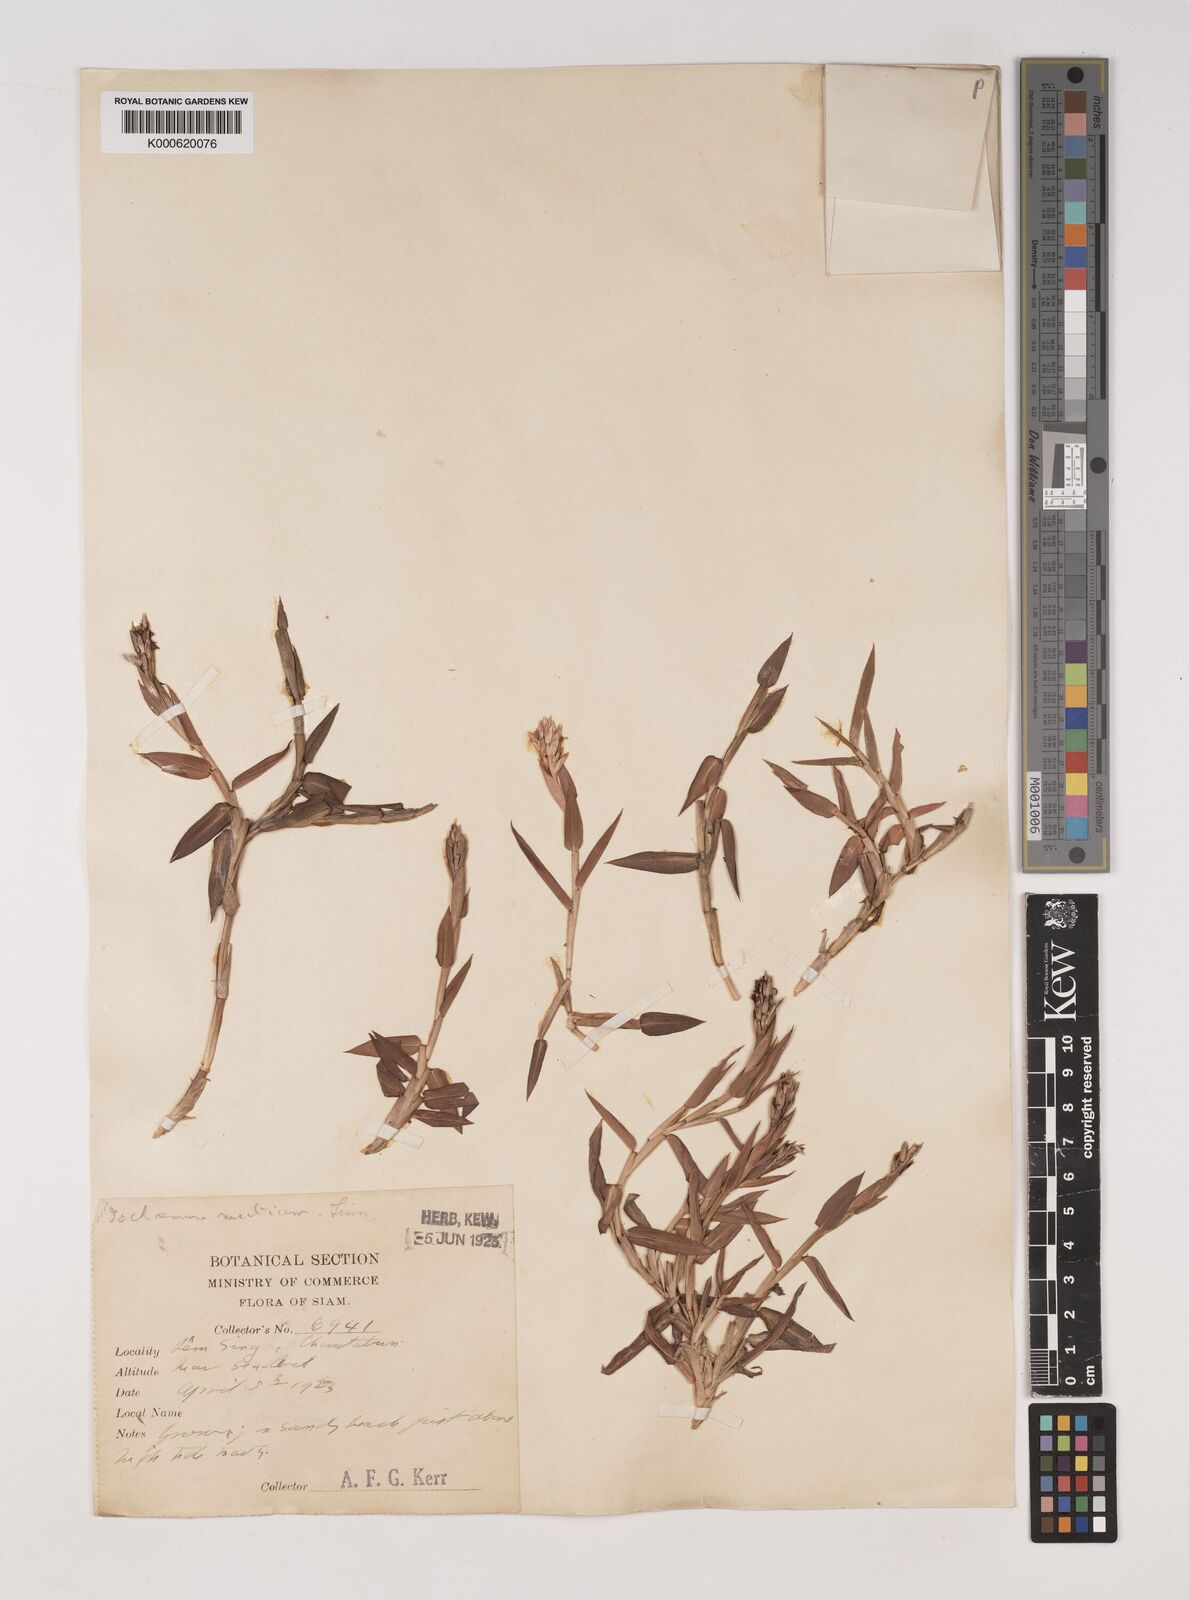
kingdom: Plantae
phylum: Tracheophyta
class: Liliopsida
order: Poales
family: Poaceae
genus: Ischaemum
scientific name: Ischaemum muticum
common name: Drought grass
